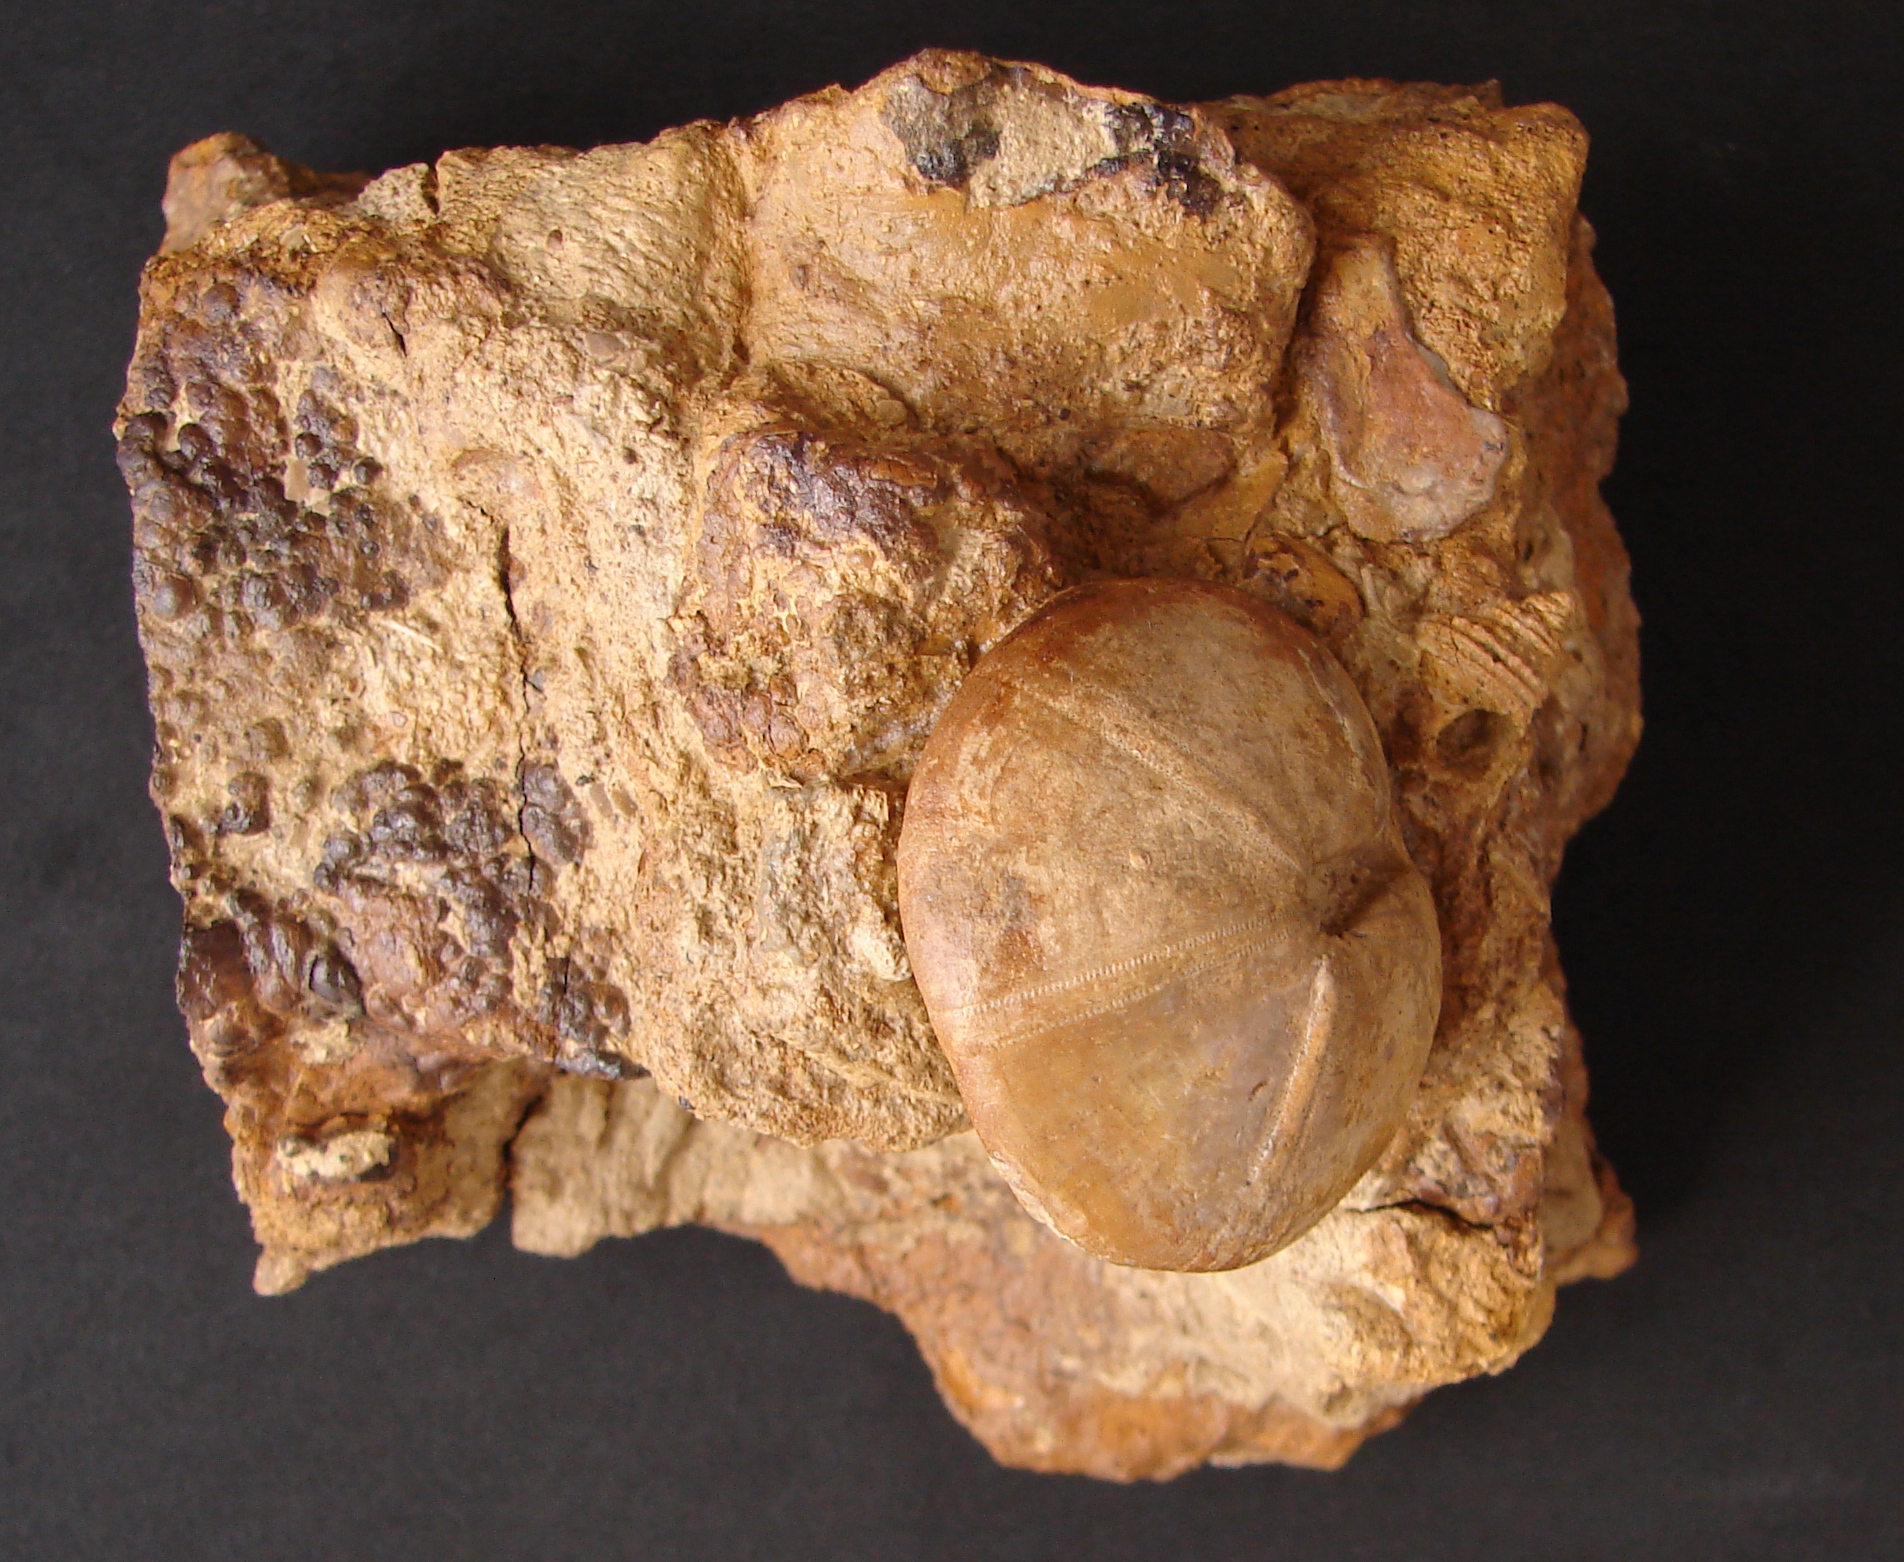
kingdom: Animalia
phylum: Echinodermata
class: Echinoidea
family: Galeropygidae
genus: Galeropygus
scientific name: Galeropygus Hyboclypus agariciformis
